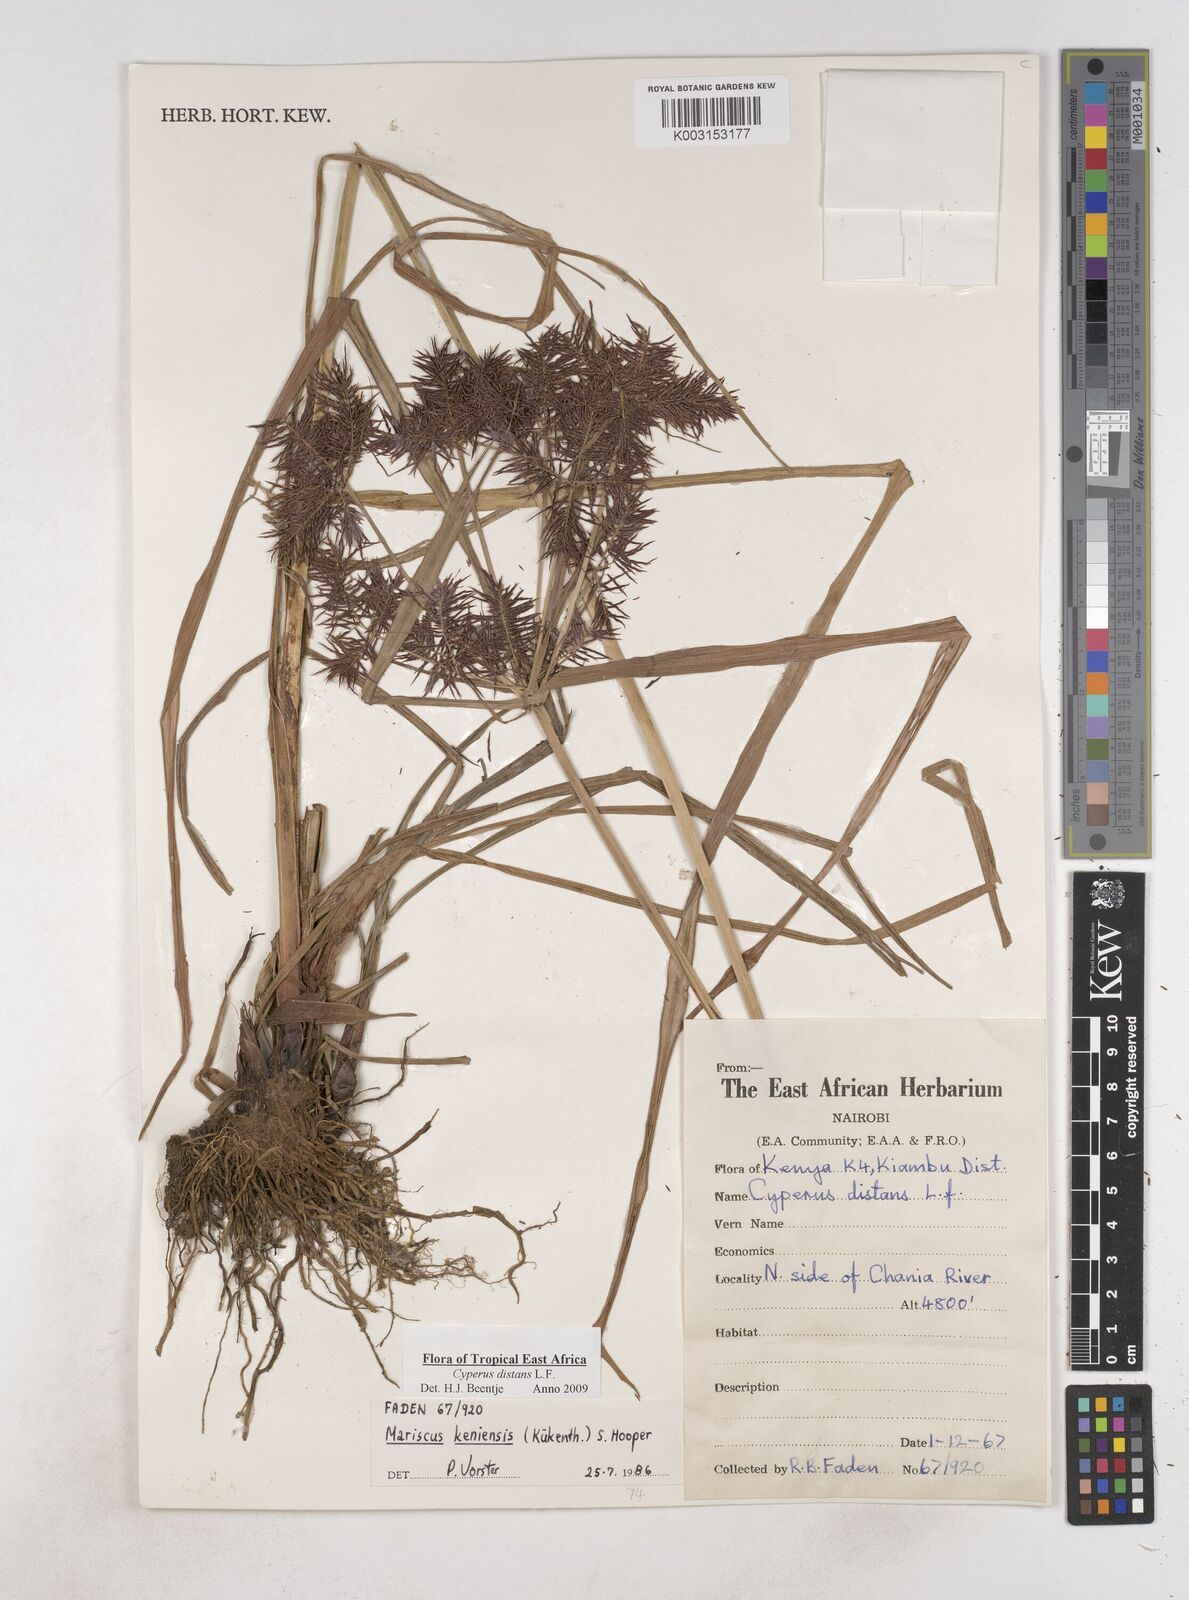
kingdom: Plantae
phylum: Tracheophyta
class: Liliopsida
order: Poales
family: Cyperaceae
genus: Cyperus
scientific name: Cyperus distans
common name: Slender cyperus
